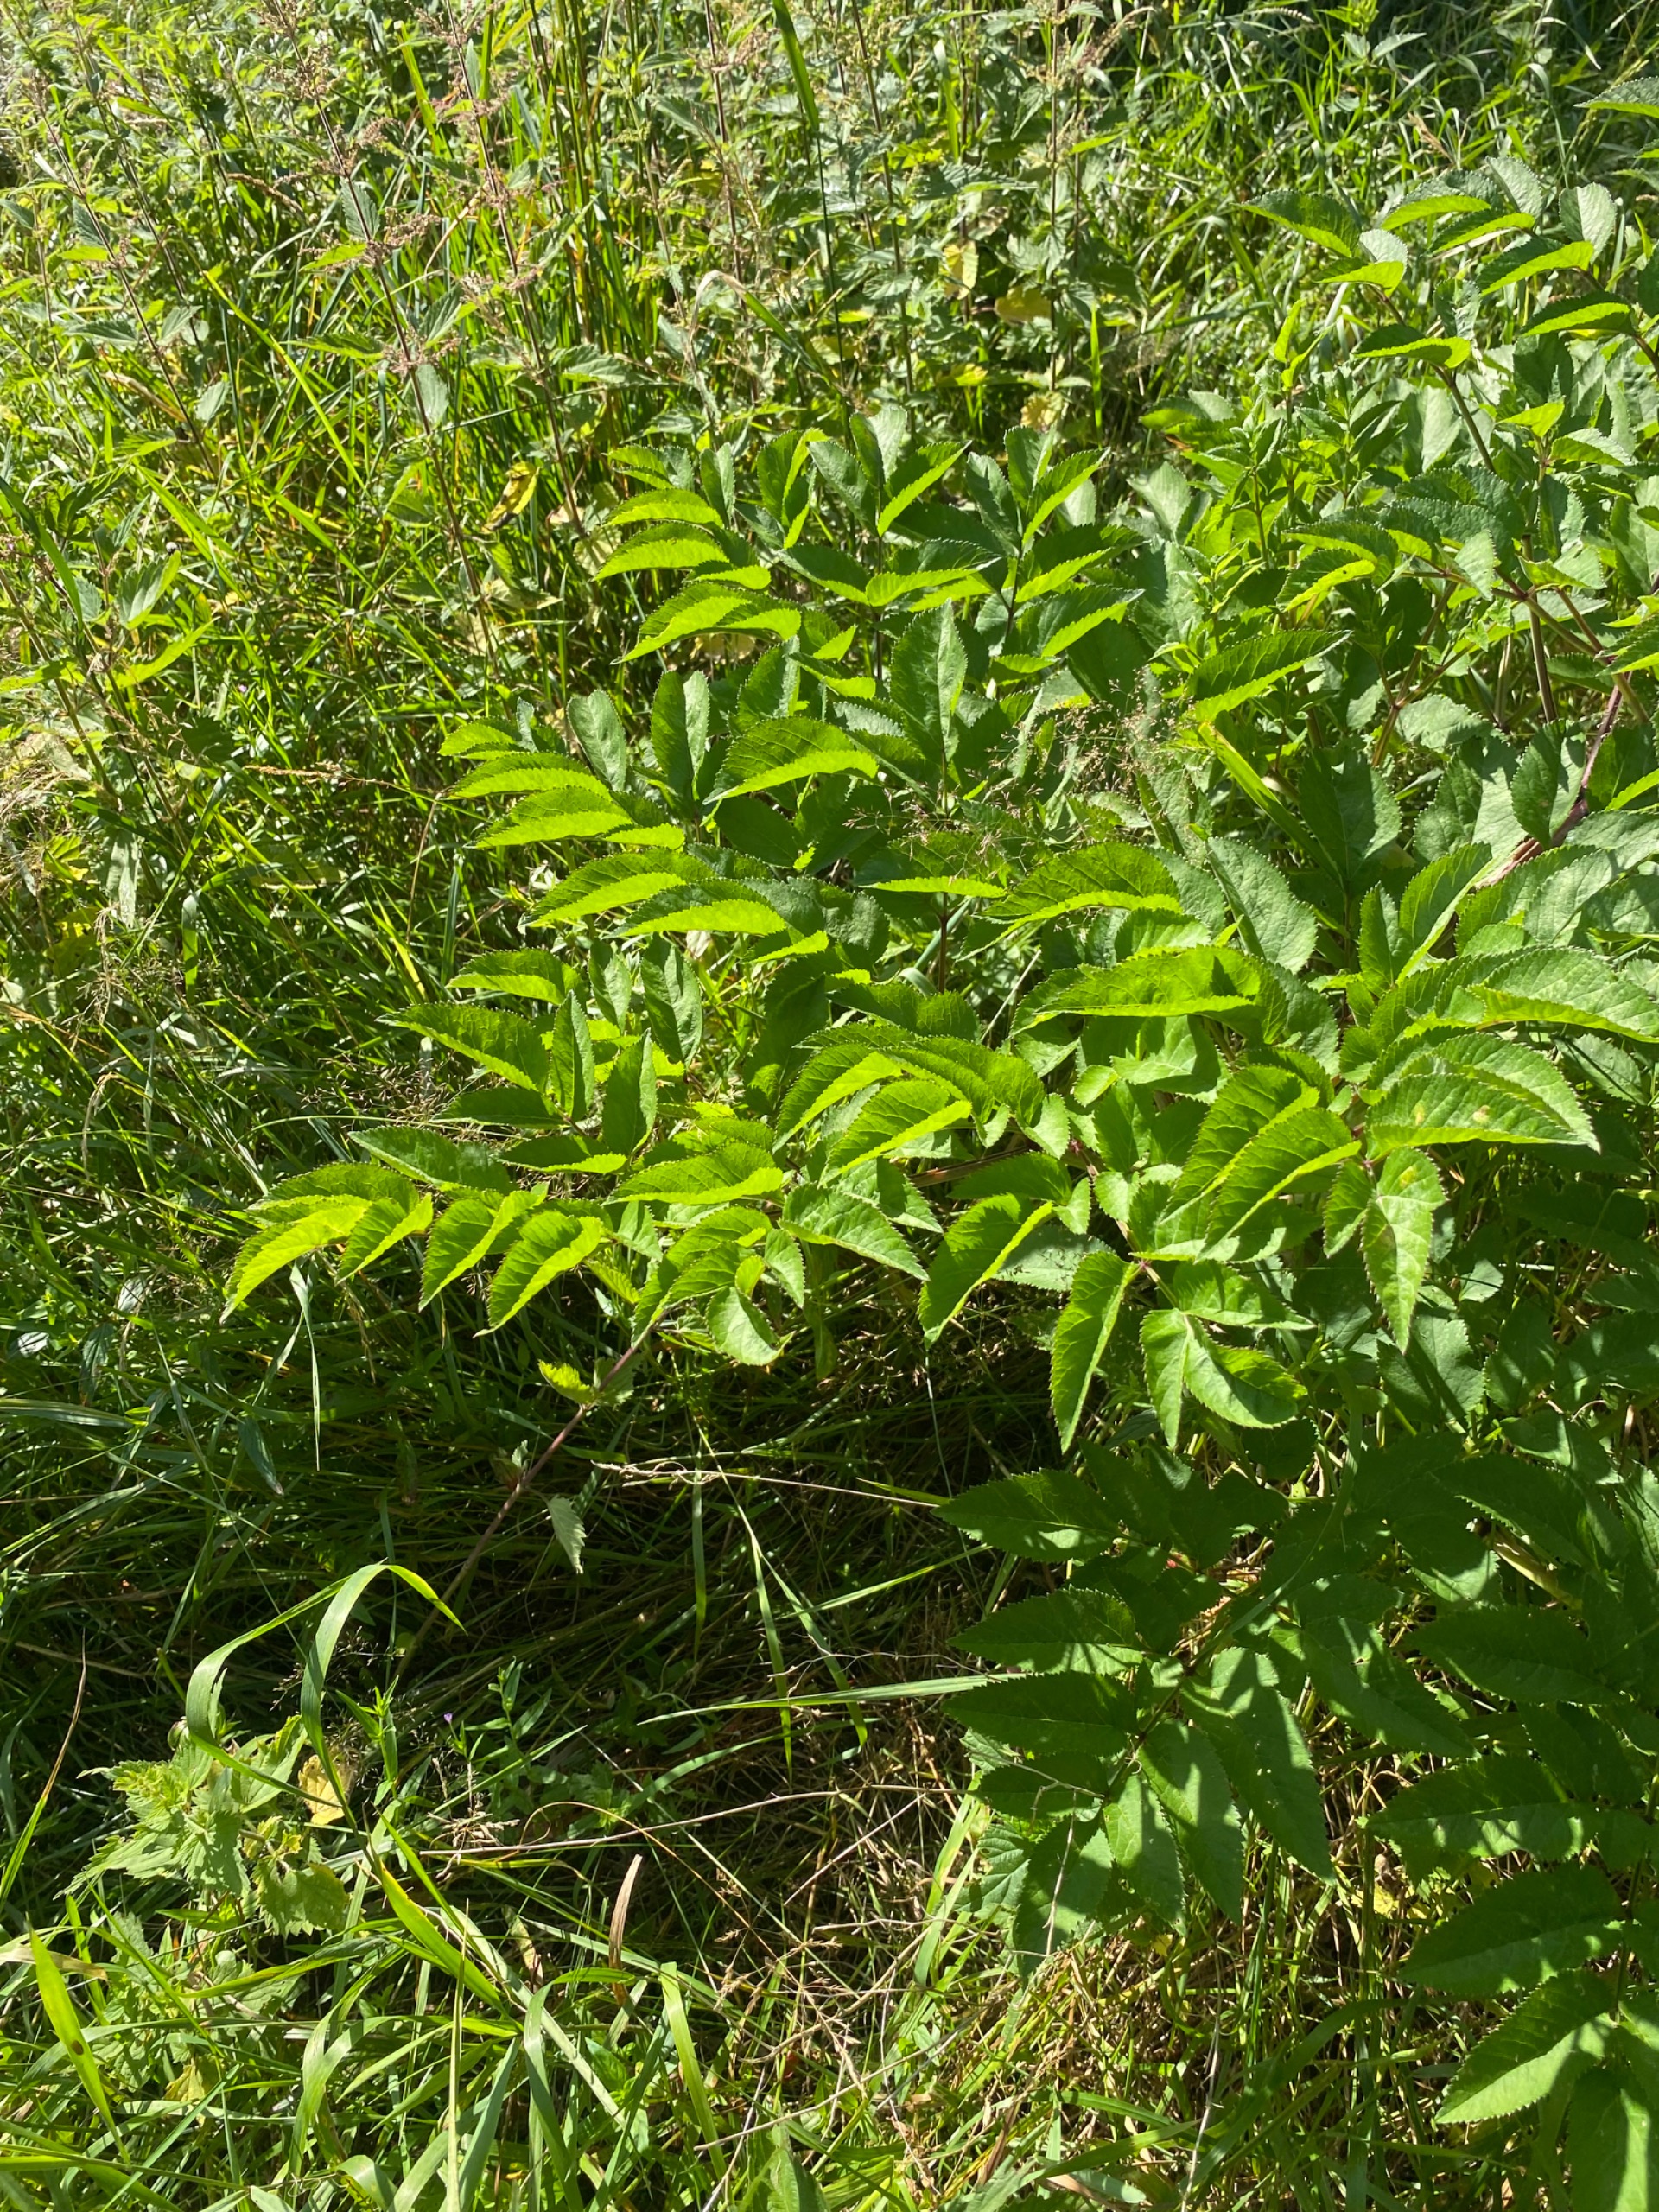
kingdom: Plantae
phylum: Tracheophyta
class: Magnoliopsida
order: Apiales
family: Apiaceae
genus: Angelica
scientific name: Angelica sylvestris
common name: Angelik
